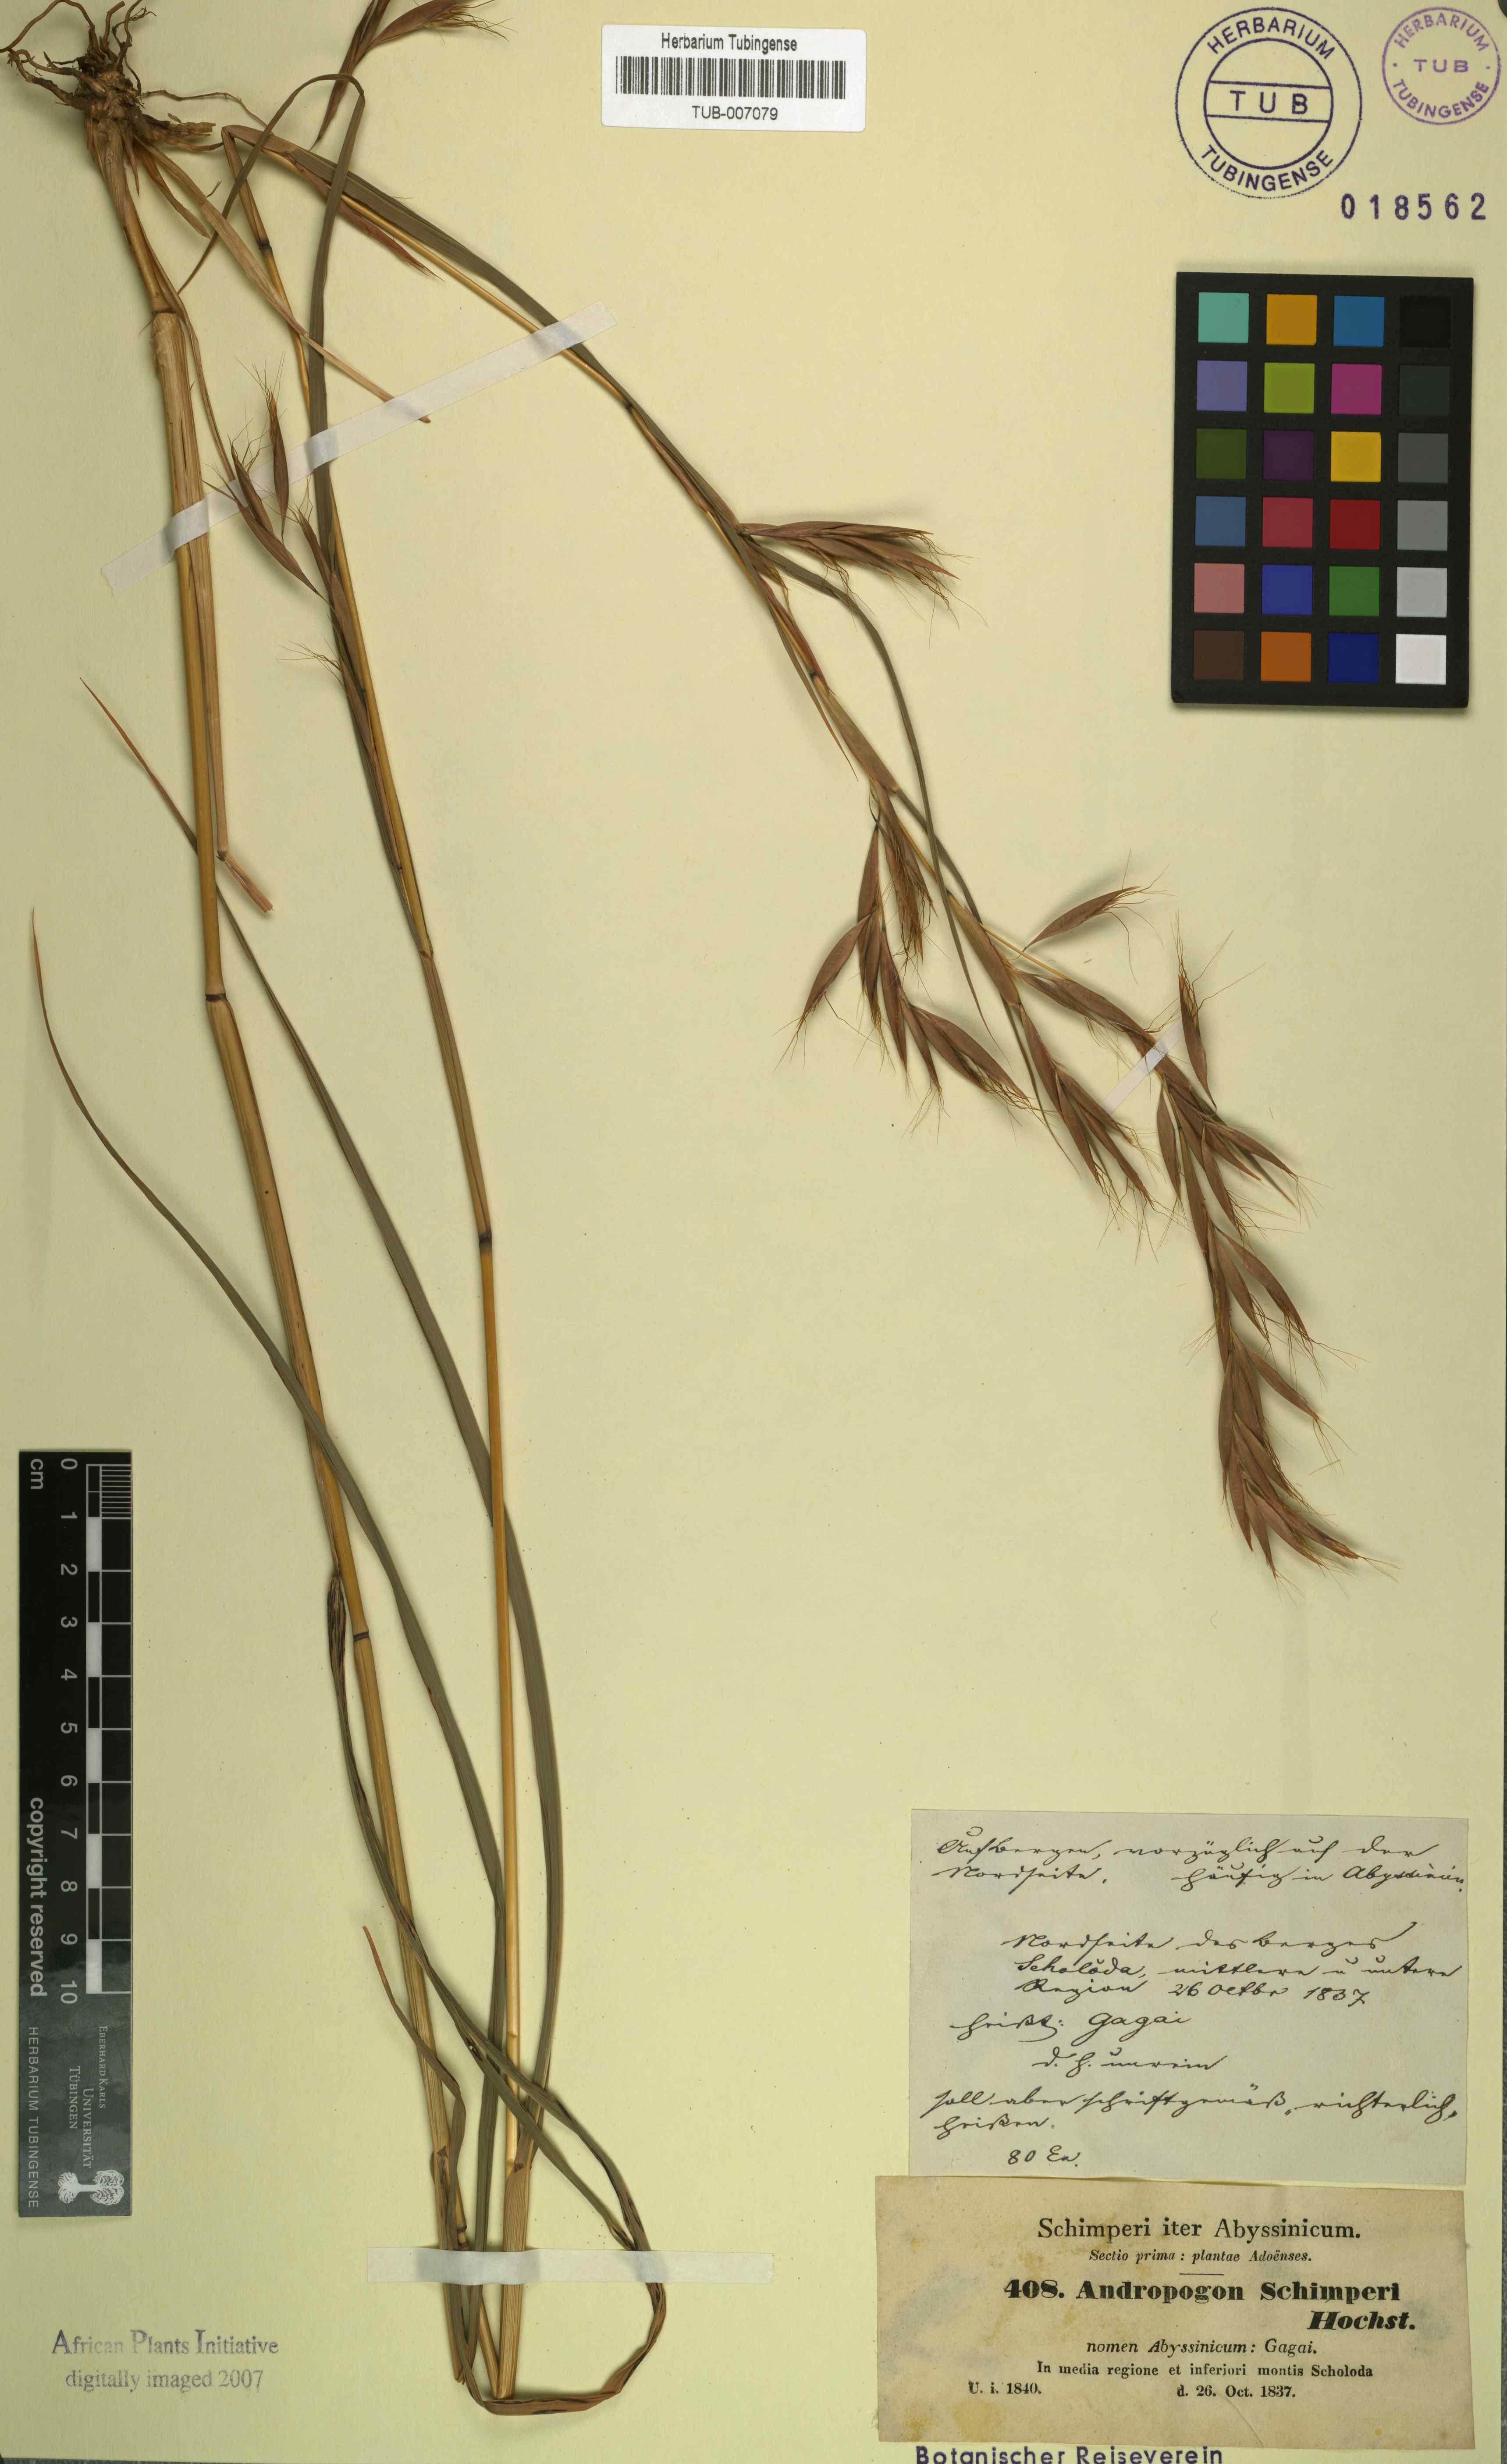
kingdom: Plantae
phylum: Tracheophyta
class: Liliopsida
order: Poales
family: Poaceae
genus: Hyparrhenia
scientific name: Hyparrhenia schimperi
